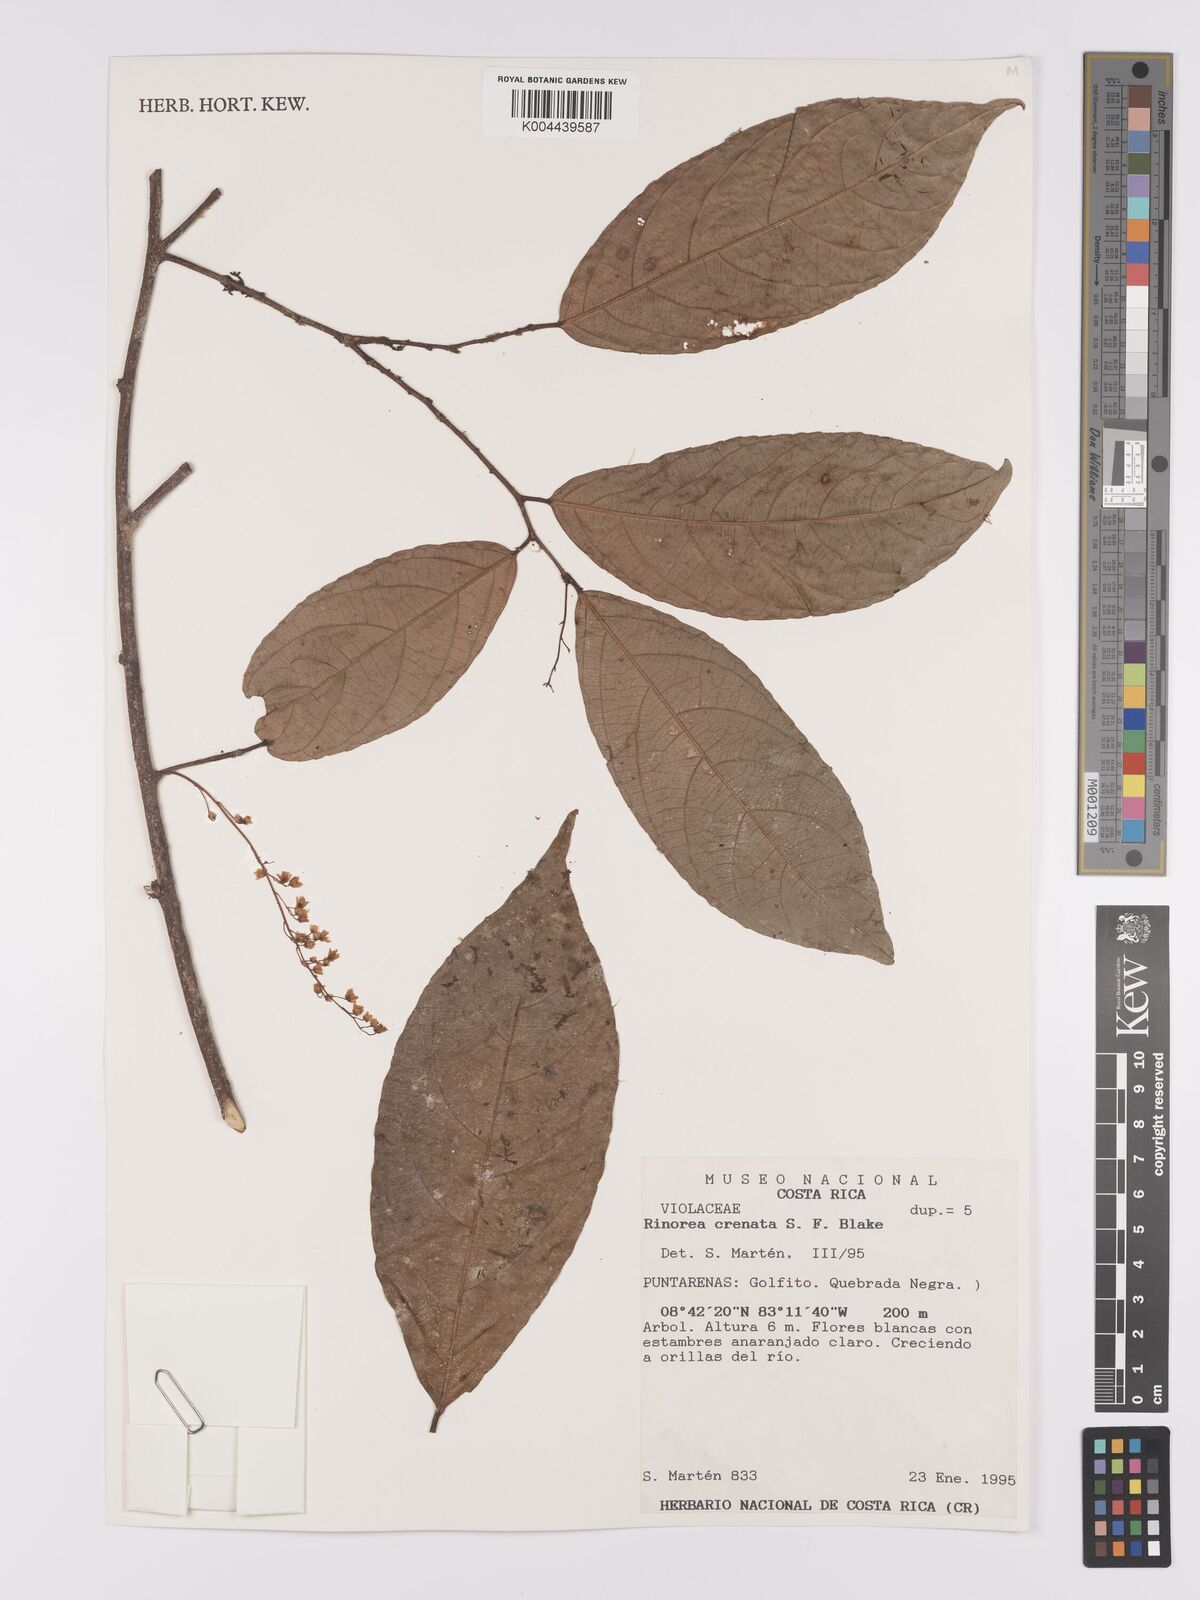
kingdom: Plantae
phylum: Tracheophyta
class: Magnoliopsida
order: Malpighiales
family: Violaceae
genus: Bribria
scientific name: Bribria crenata
